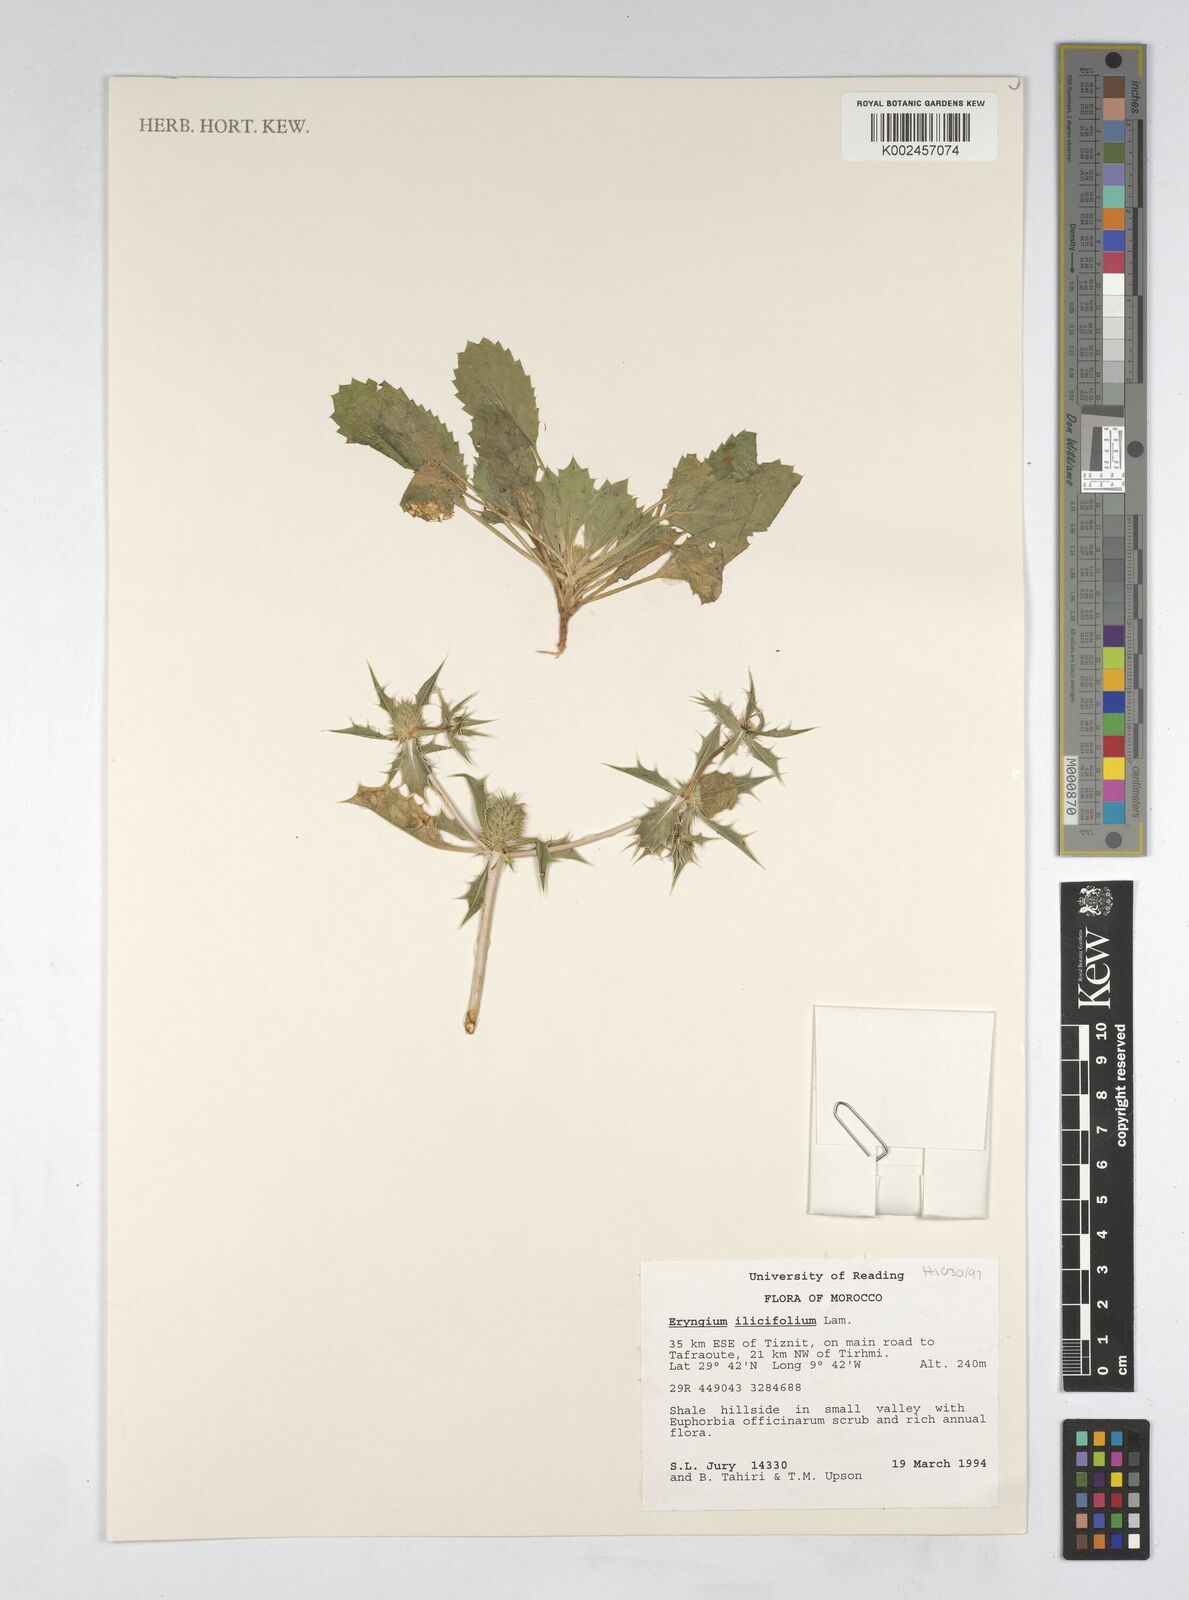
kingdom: Plantae
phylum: Tracheophyta
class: Magnoliopsida
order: Apiales
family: Apiaceae
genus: Eryngium
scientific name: Eryngium
